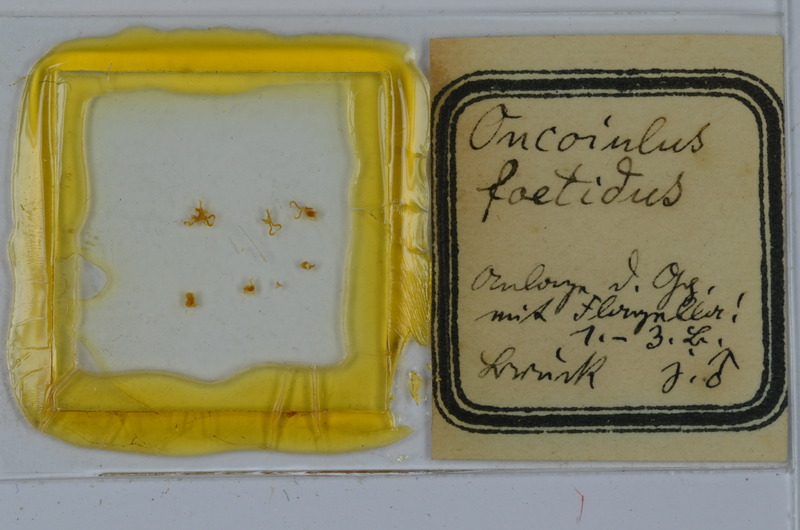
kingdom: Animalia
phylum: Arthropoda
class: Diplopoda
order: Julida
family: Julidae
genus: Unciger
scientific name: Unciger foetidus
